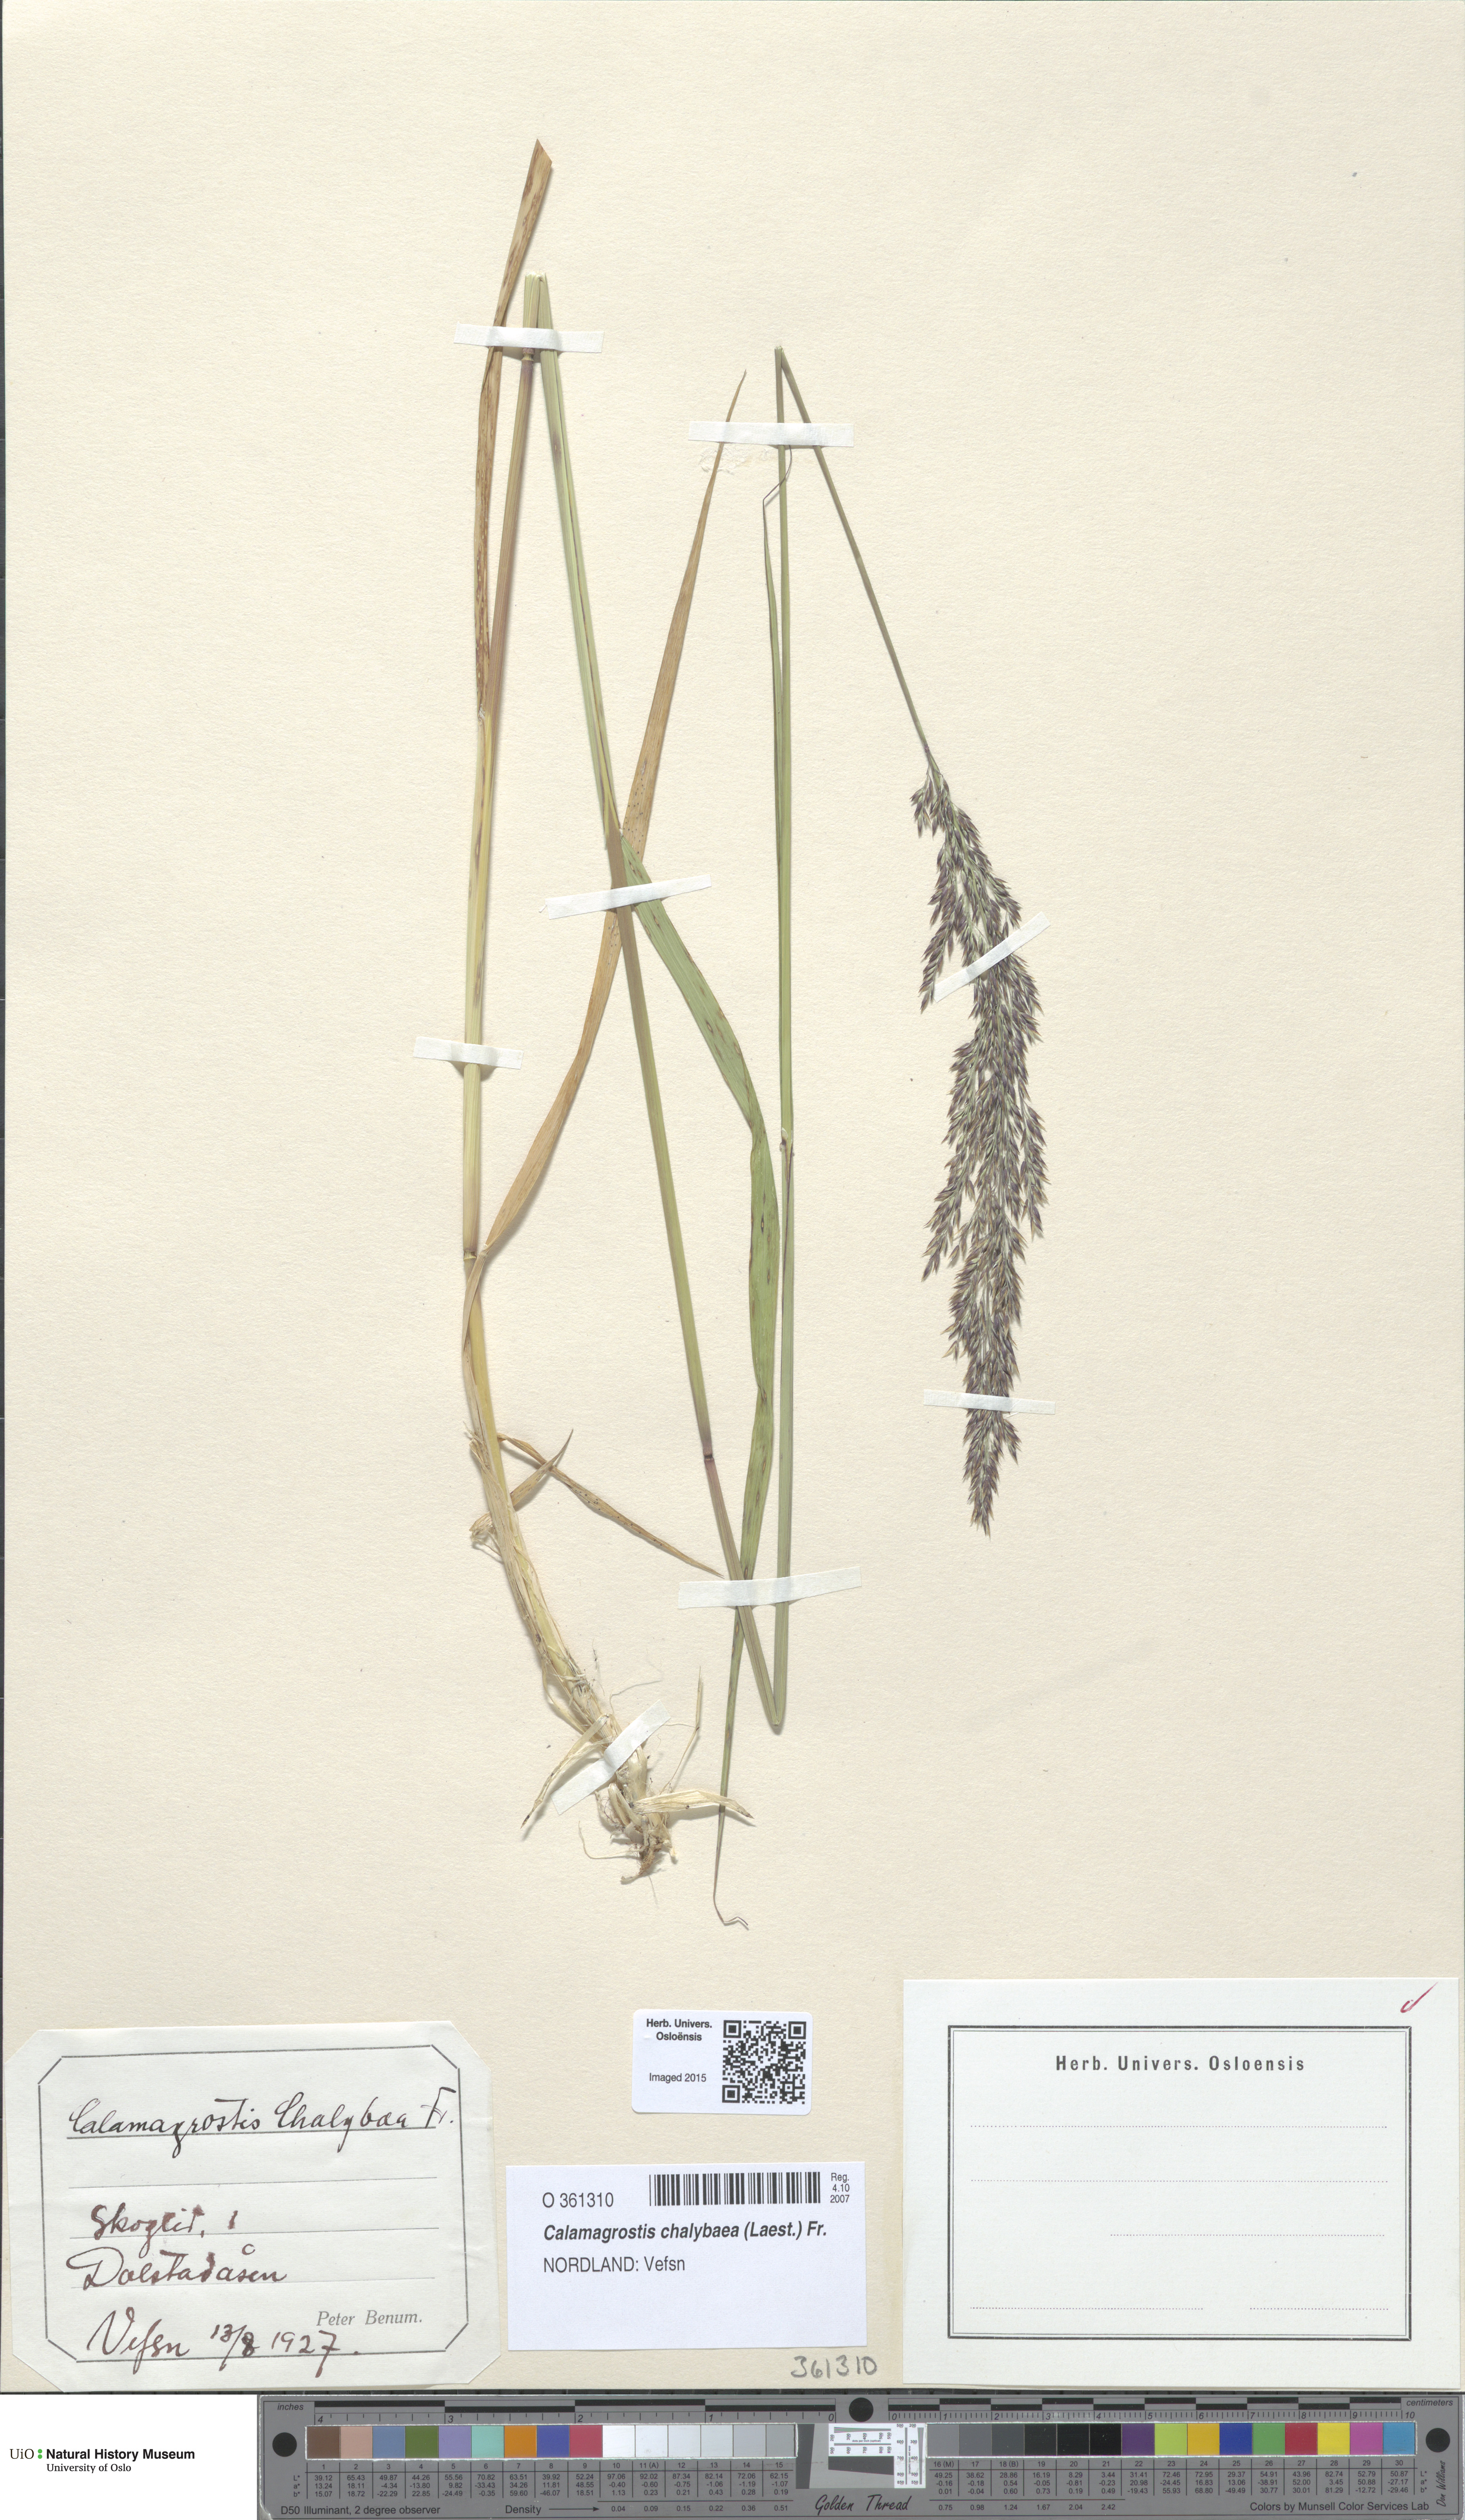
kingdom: Plantae
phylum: Tracheophyta
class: Liliopsida
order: Poales
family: Poaceae
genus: Calamagrostis
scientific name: Calamagrostis chalybaea
